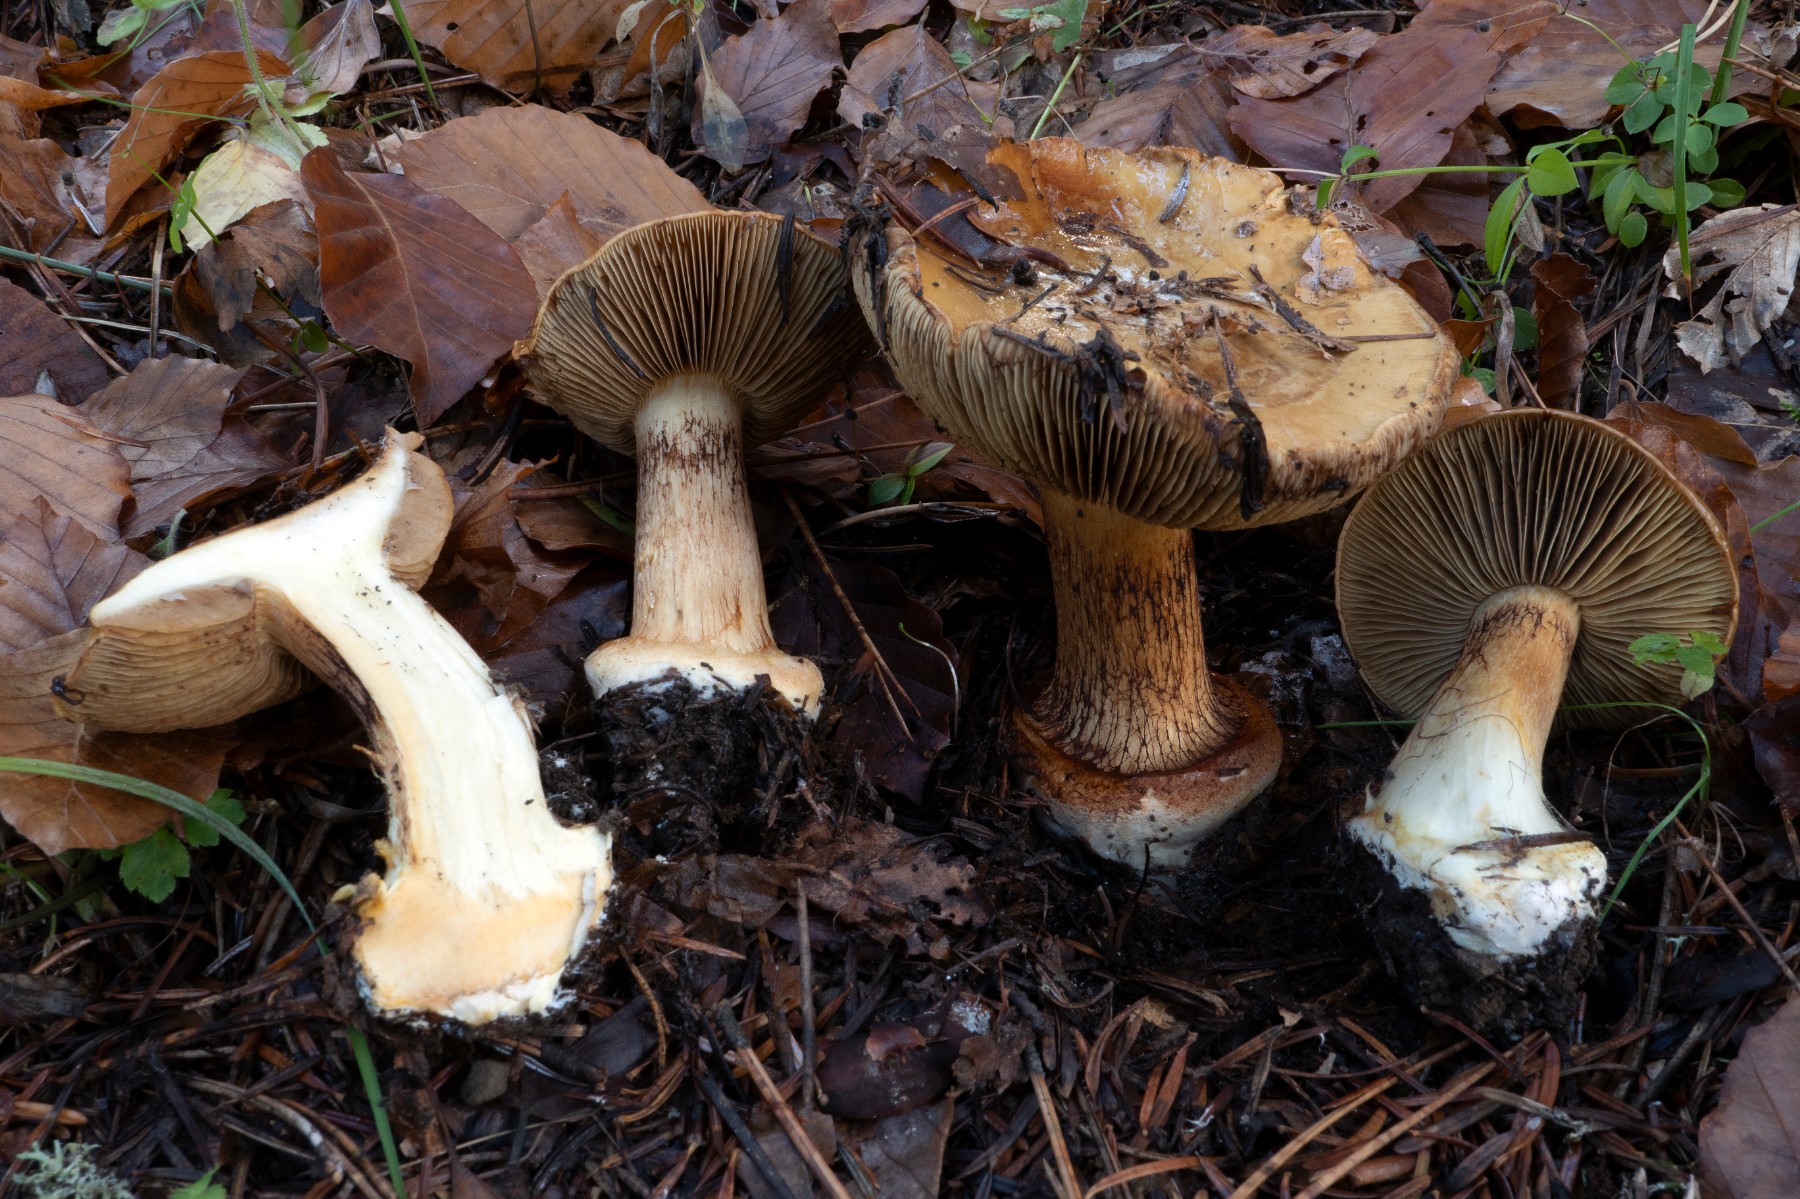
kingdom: Fungi
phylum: Basidiomycota
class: Agaricomycetes
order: Agaricales
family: Cortinariaceae
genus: Cortinarius
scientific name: Cortinarius
